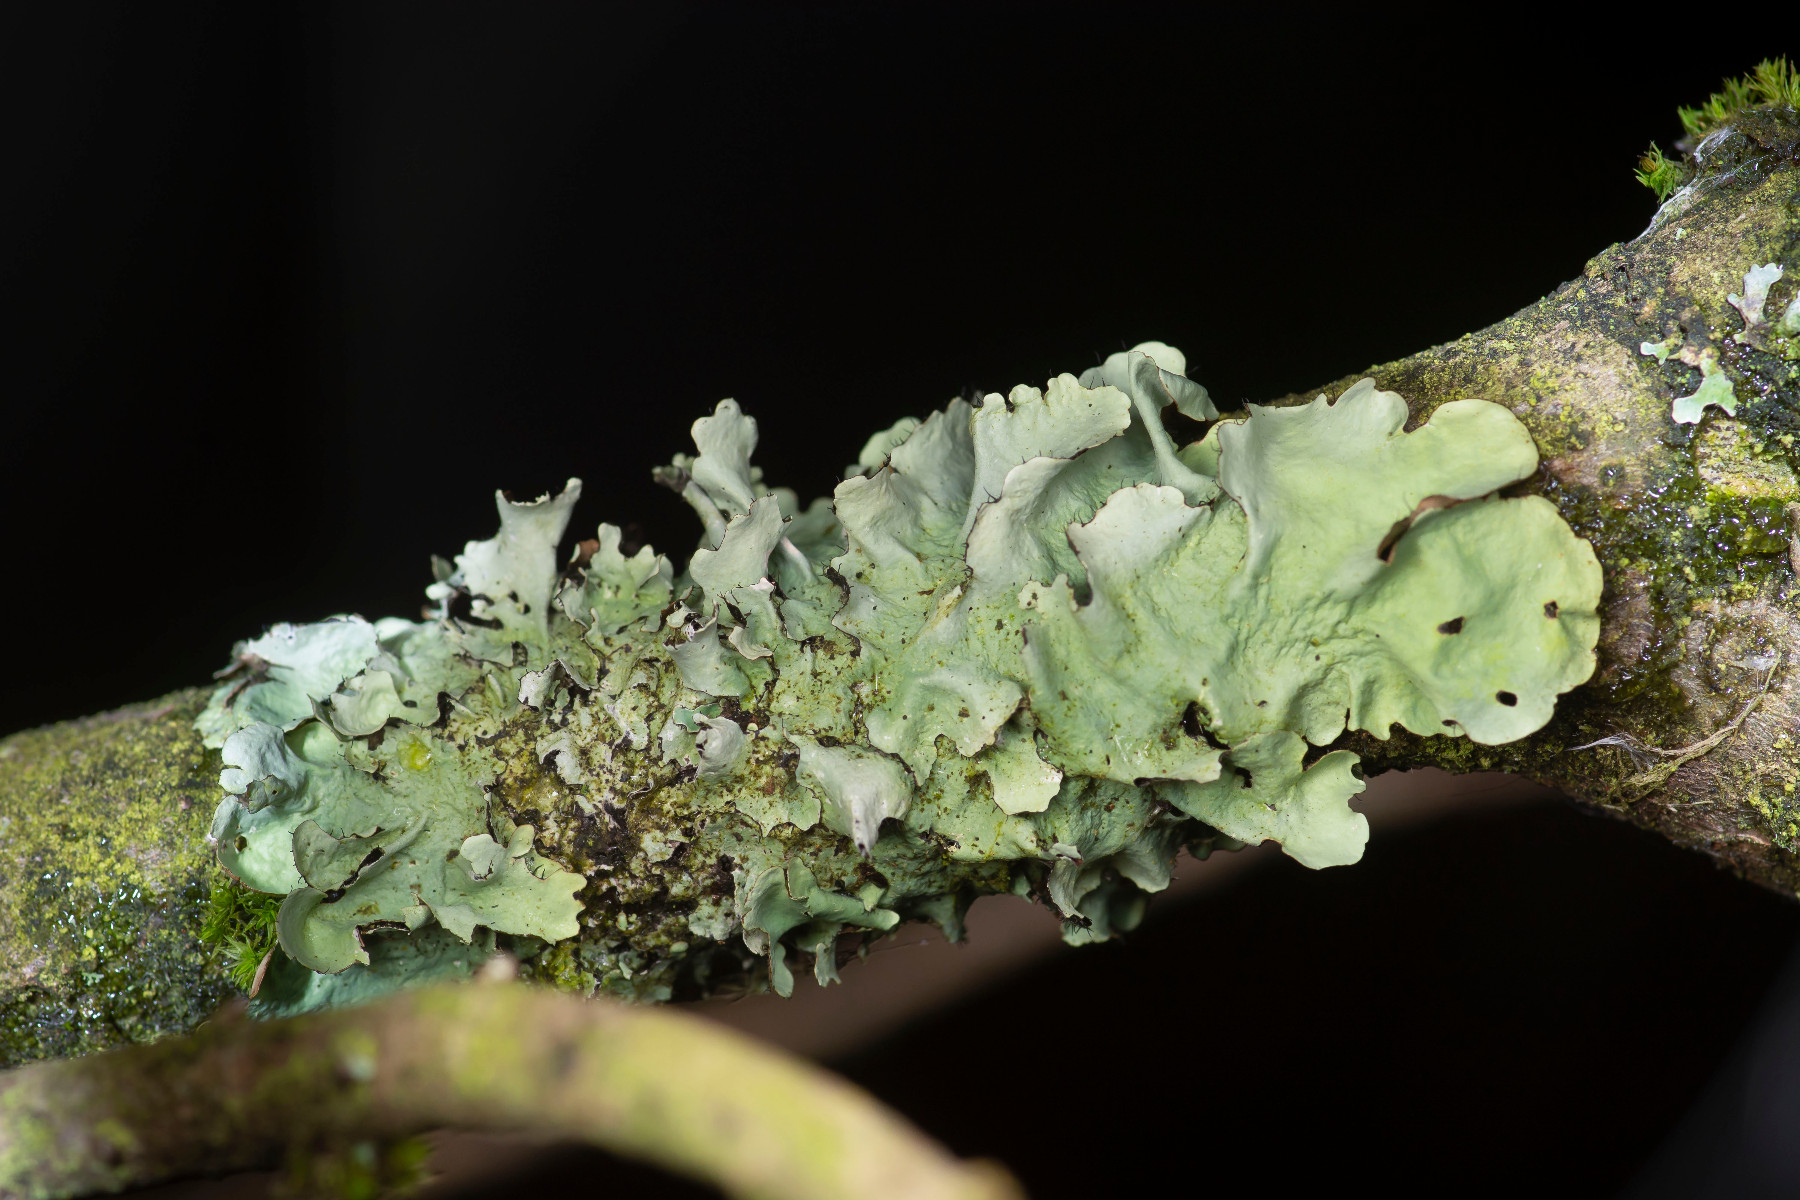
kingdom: Fungi
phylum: Ascomycota
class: Lecanoromycetes
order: Lecanorales
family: Parmeliaceae
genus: Parmotrema
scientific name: Parmotrema perlatum
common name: trådet skållav
